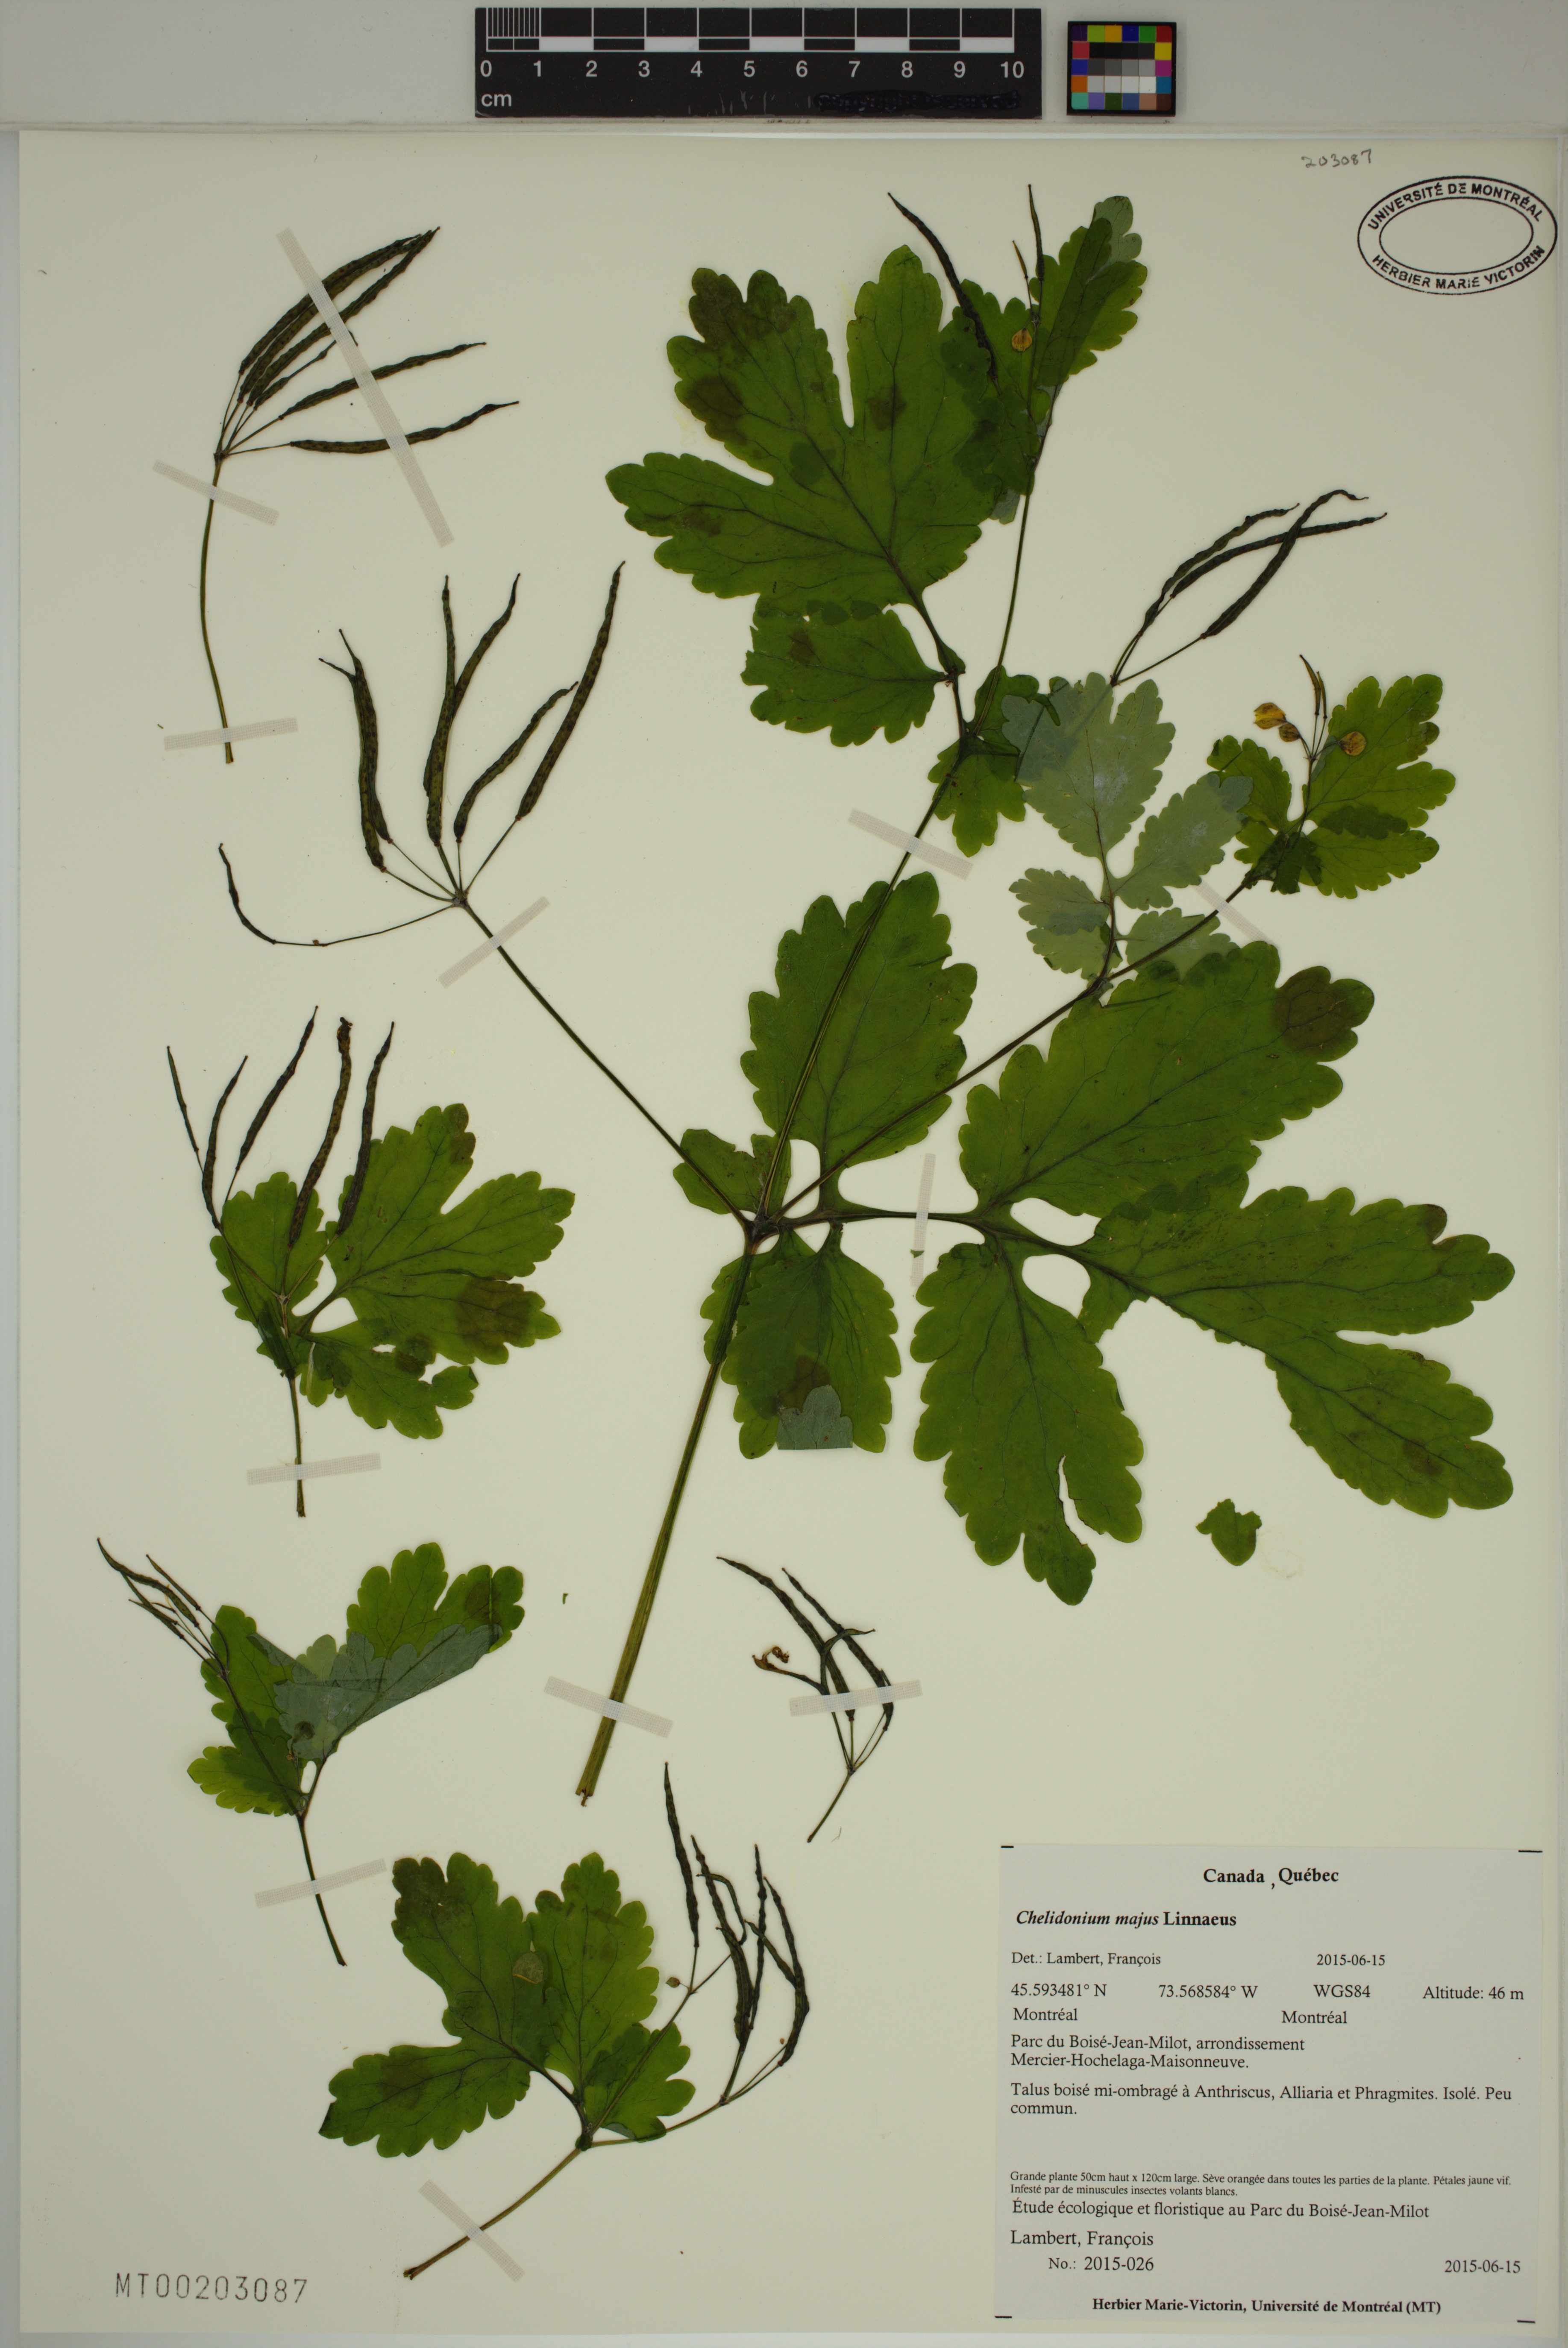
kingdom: Plantae
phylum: Tracheophyta
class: Magnoliopsida
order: Ranunculales
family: Papaveraceae
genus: Chelidonium
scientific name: Chelidonium majus
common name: Greater celandine
